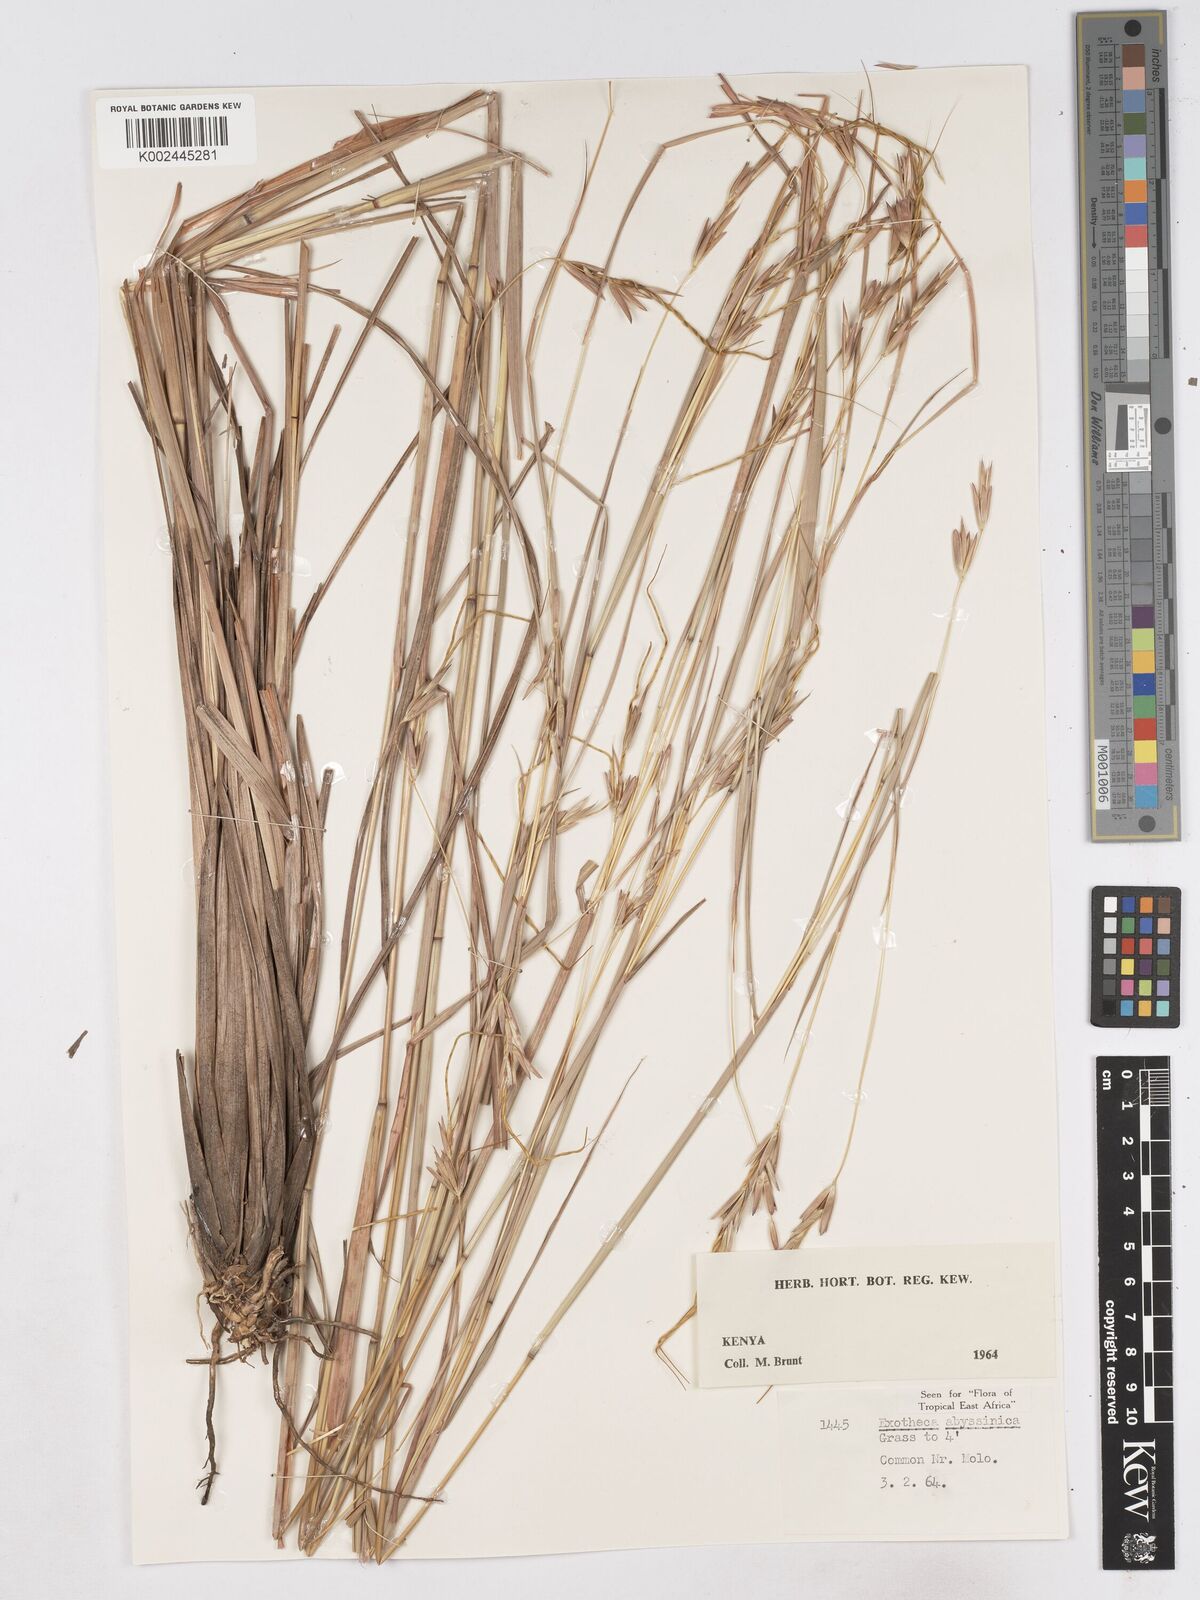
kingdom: Plantae
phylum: Tracheophyta
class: Liliopsida
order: Poales
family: Poaceae
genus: Exotheca
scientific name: Exotheca abyssinica
